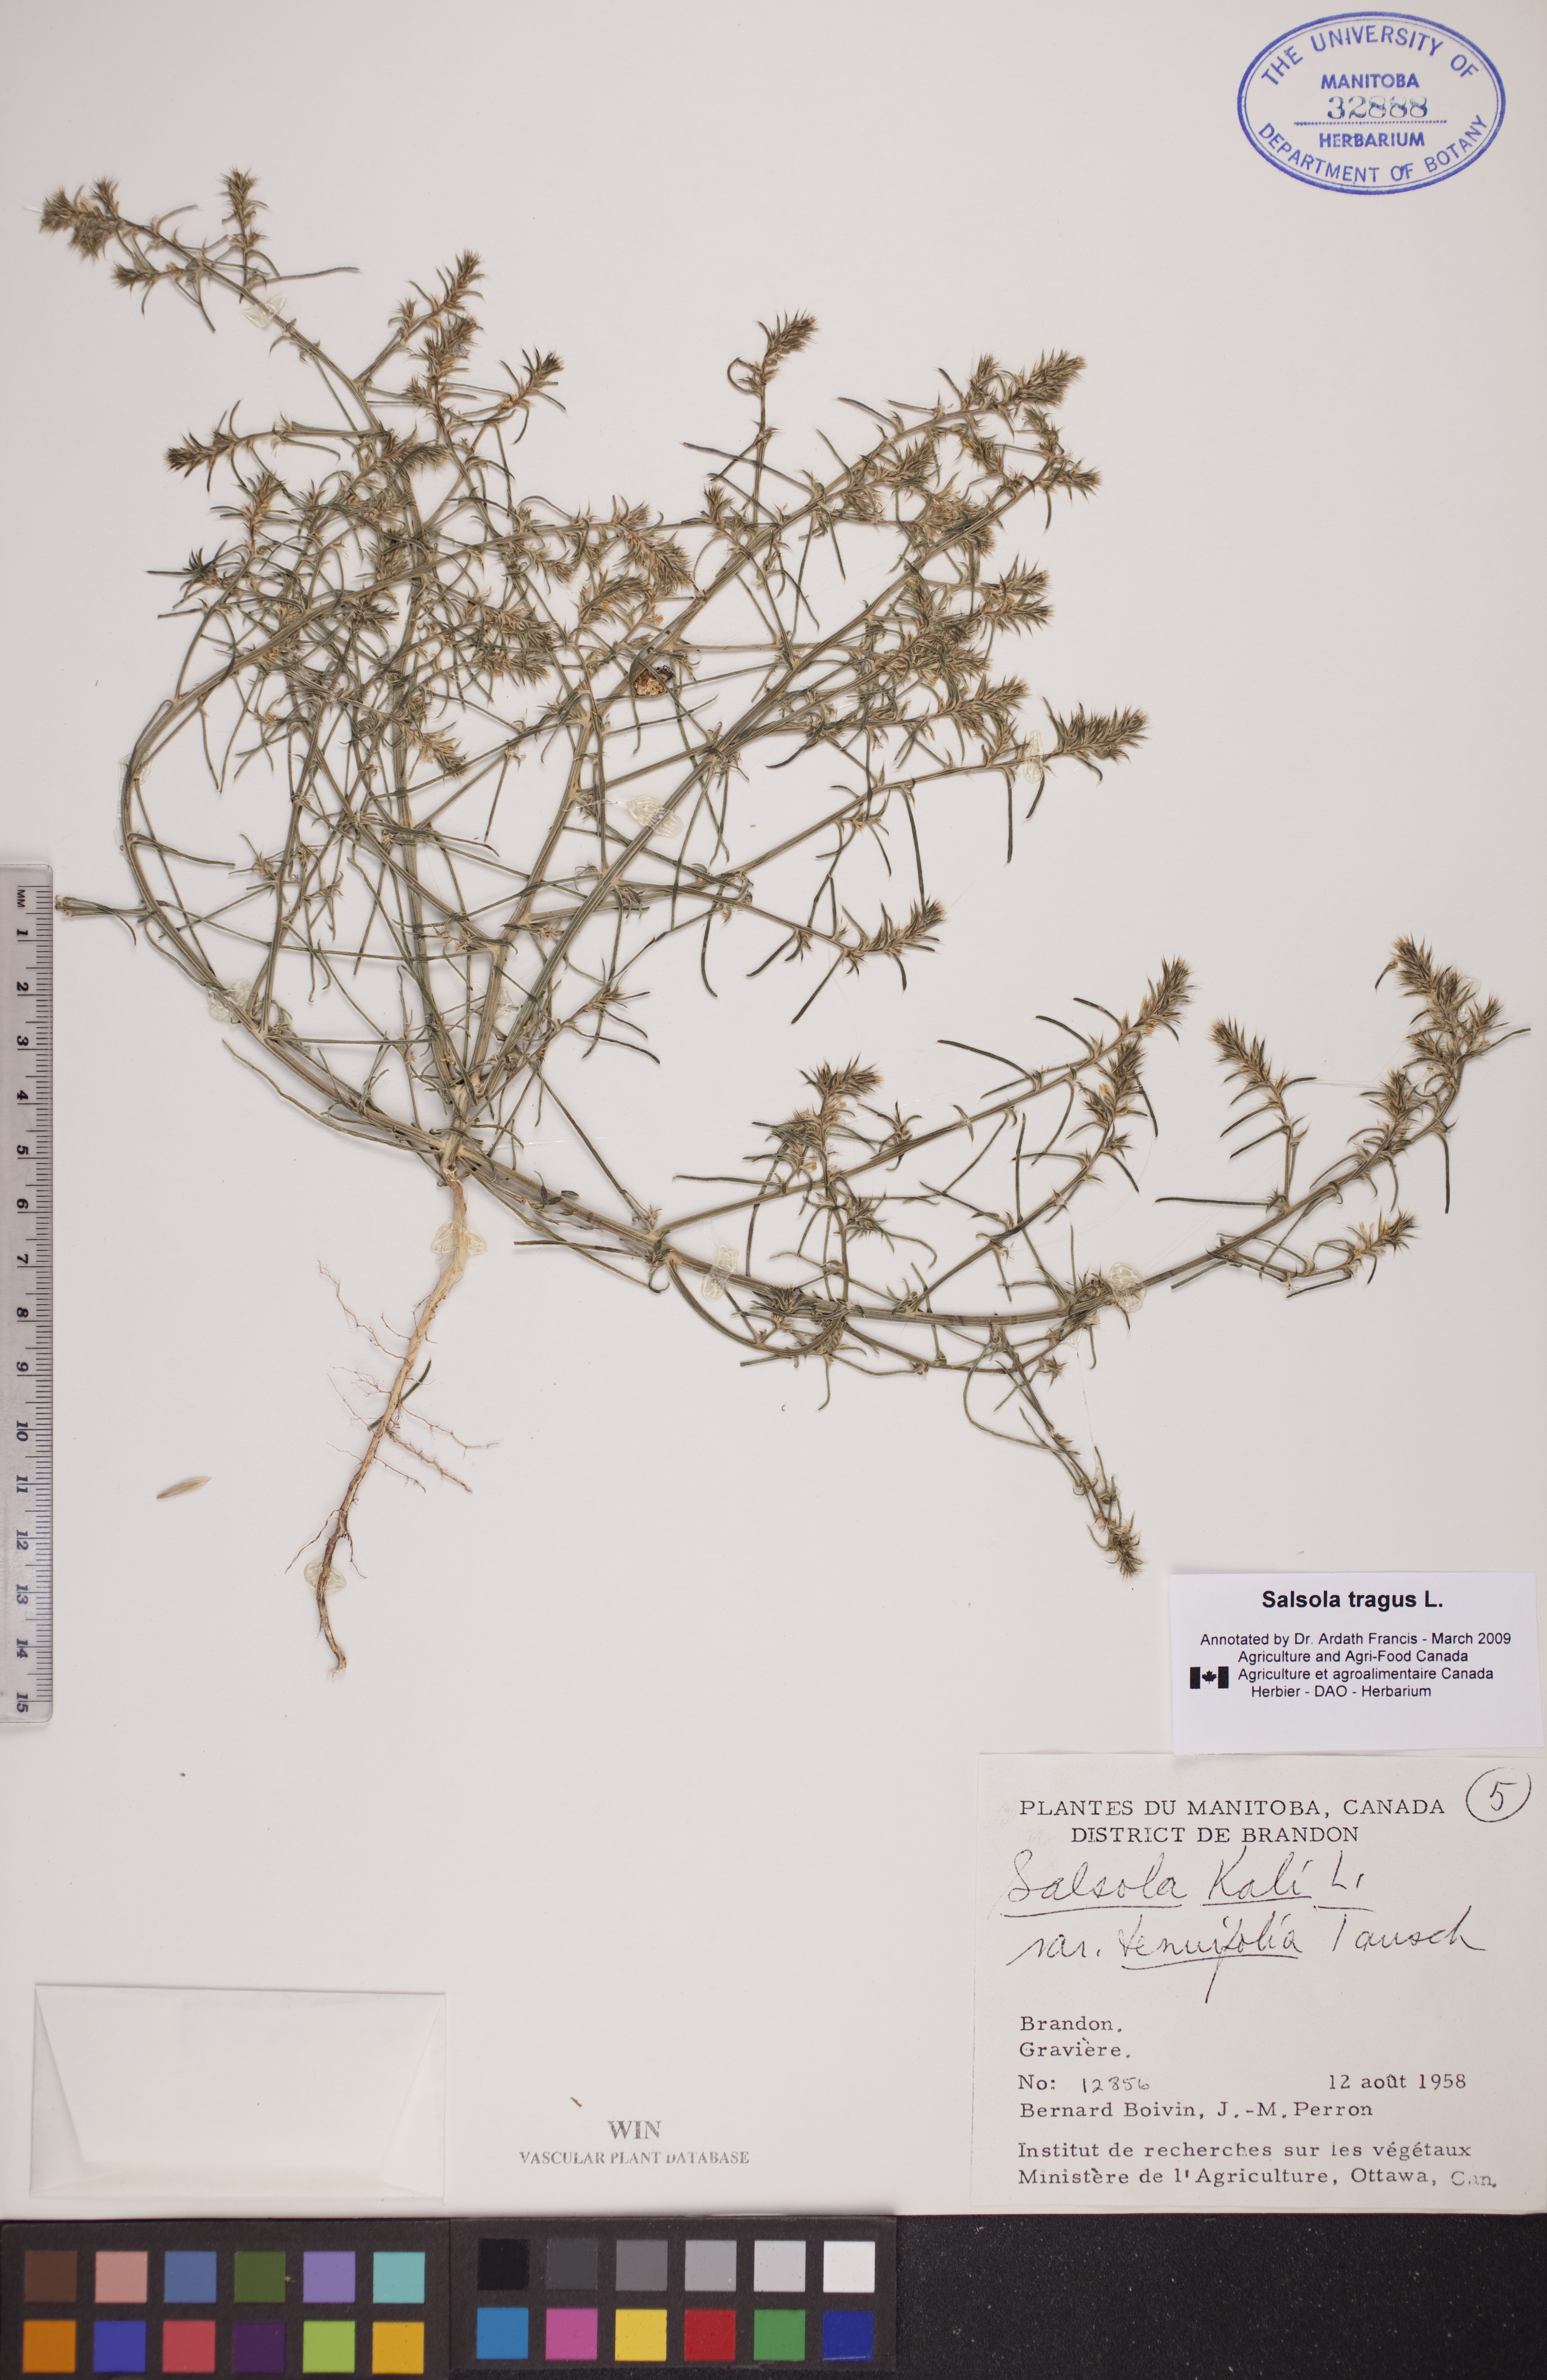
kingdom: Plantae
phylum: Tracheophyta
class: Magnoliopsida
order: Caryophyllales
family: Amaranthaceae
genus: Salsola
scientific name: Salsola tragus
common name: Prickly russian thistle
